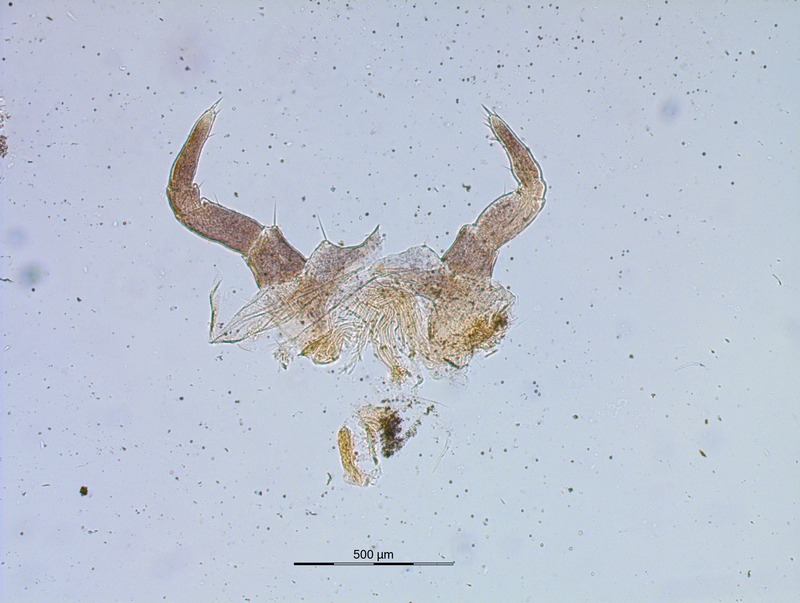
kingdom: Animalia
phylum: Arthropoda
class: Diplopoda
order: Glomerida
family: Glomeridae
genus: Glomeris
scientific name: Glomeris guttata
